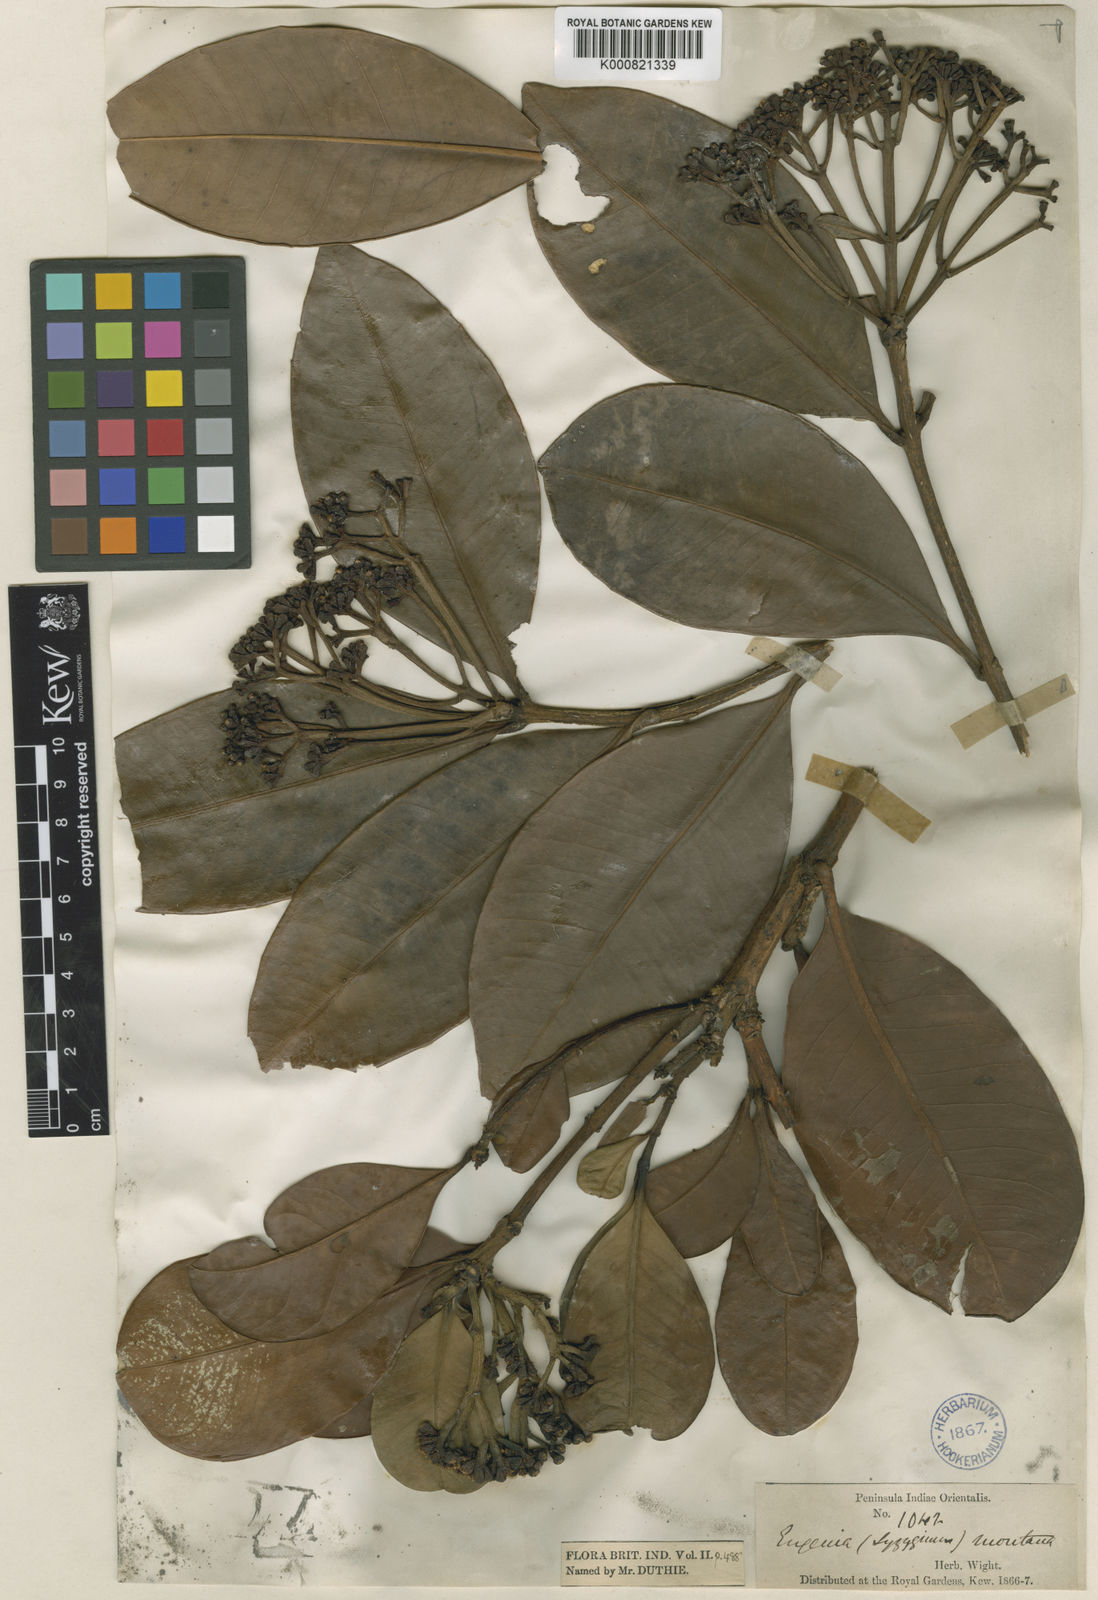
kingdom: Plantae
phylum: Tracheophyta
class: Magnoliopsida
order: Myrtales
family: Myrtaceae
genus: Syzygium
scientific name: Syzygium grande
